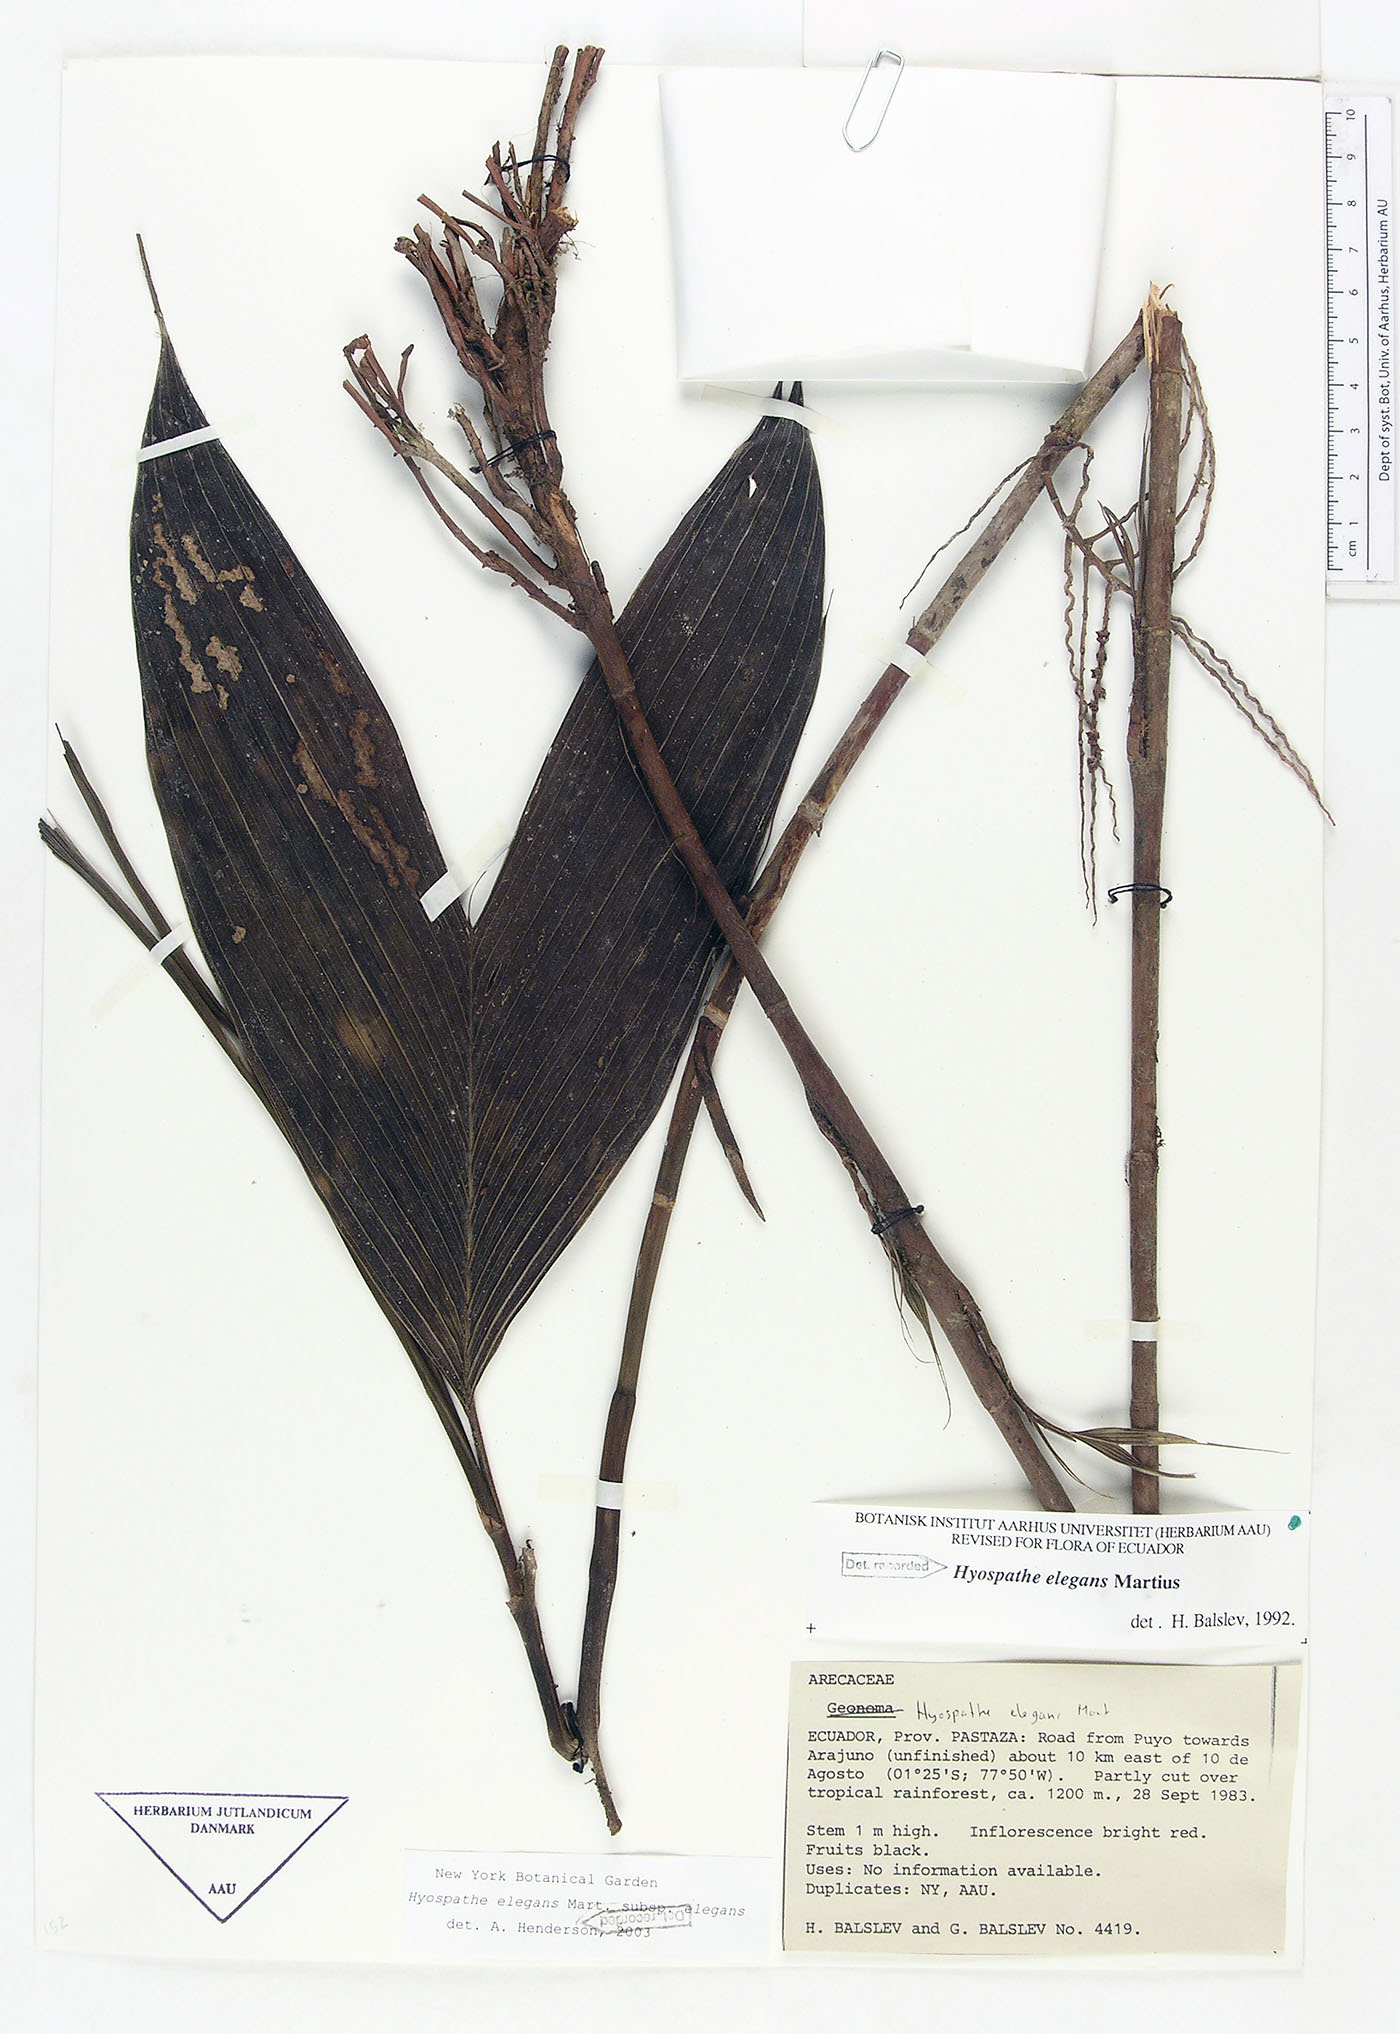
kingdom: Plantae
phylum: Tracheophyta
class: Liliopsida
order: Arecales
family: Arecaceae
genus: Hyospathe
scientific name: Hyospathe elegans
